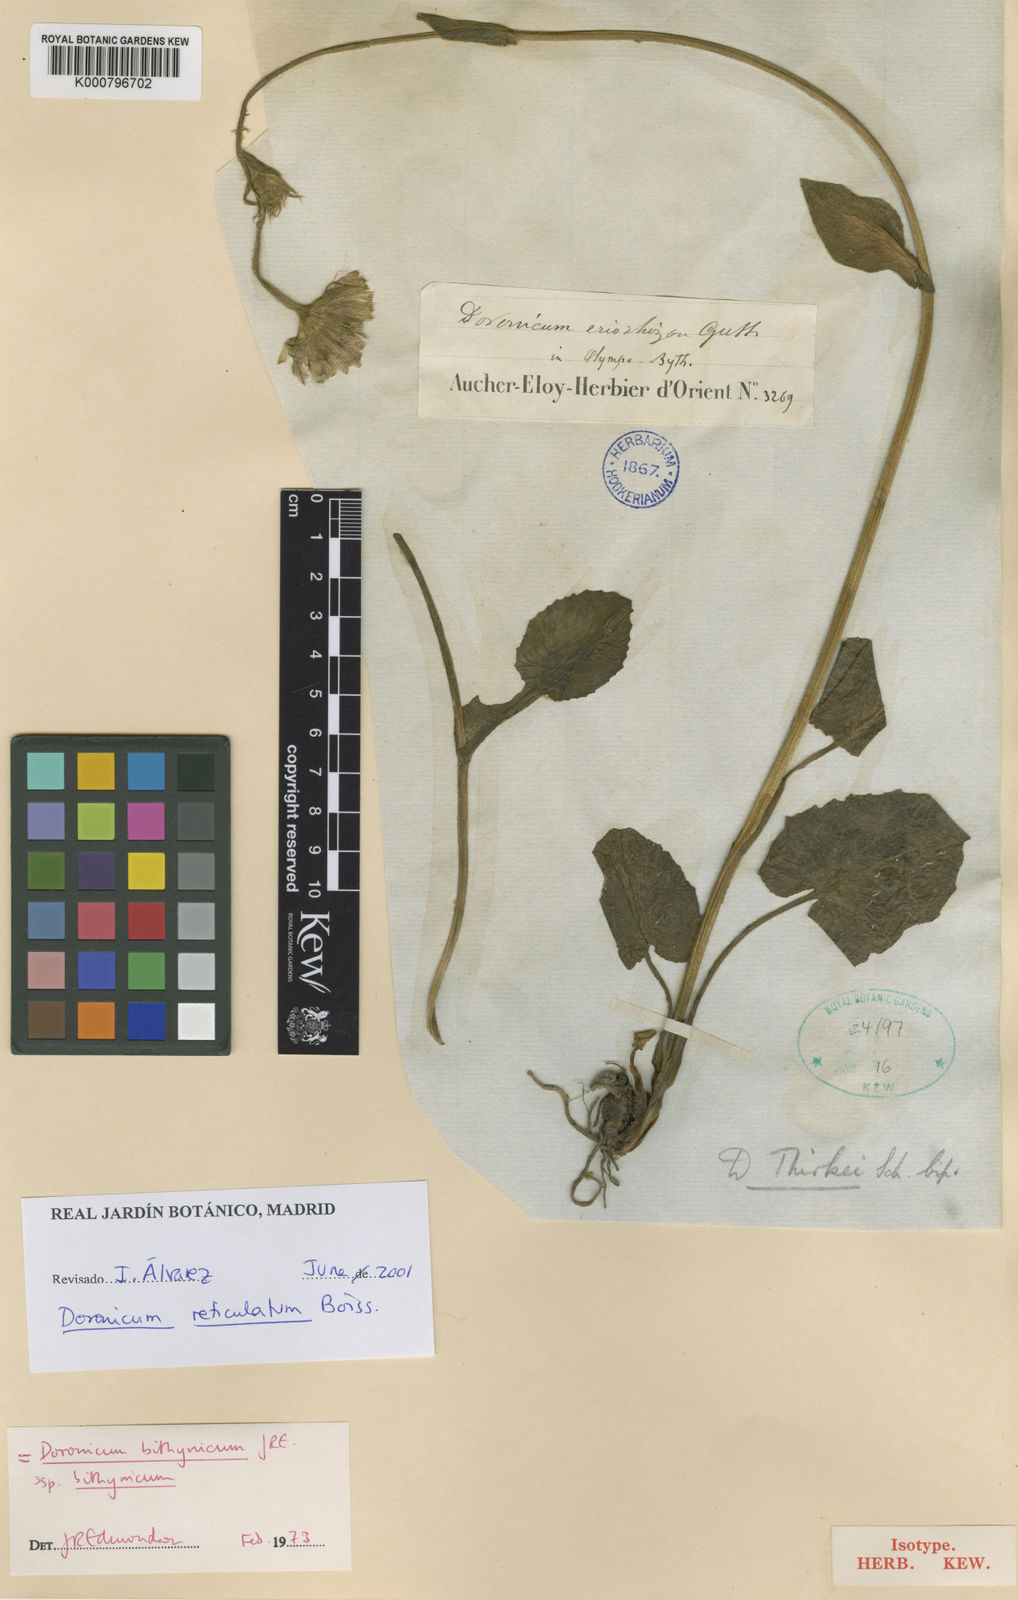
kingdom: Plantae
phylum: Tracheophyta
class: Magnoliopsida
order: Asterales
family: Asteraceae
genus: Doronicum
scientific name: Doronicum reticulatum
